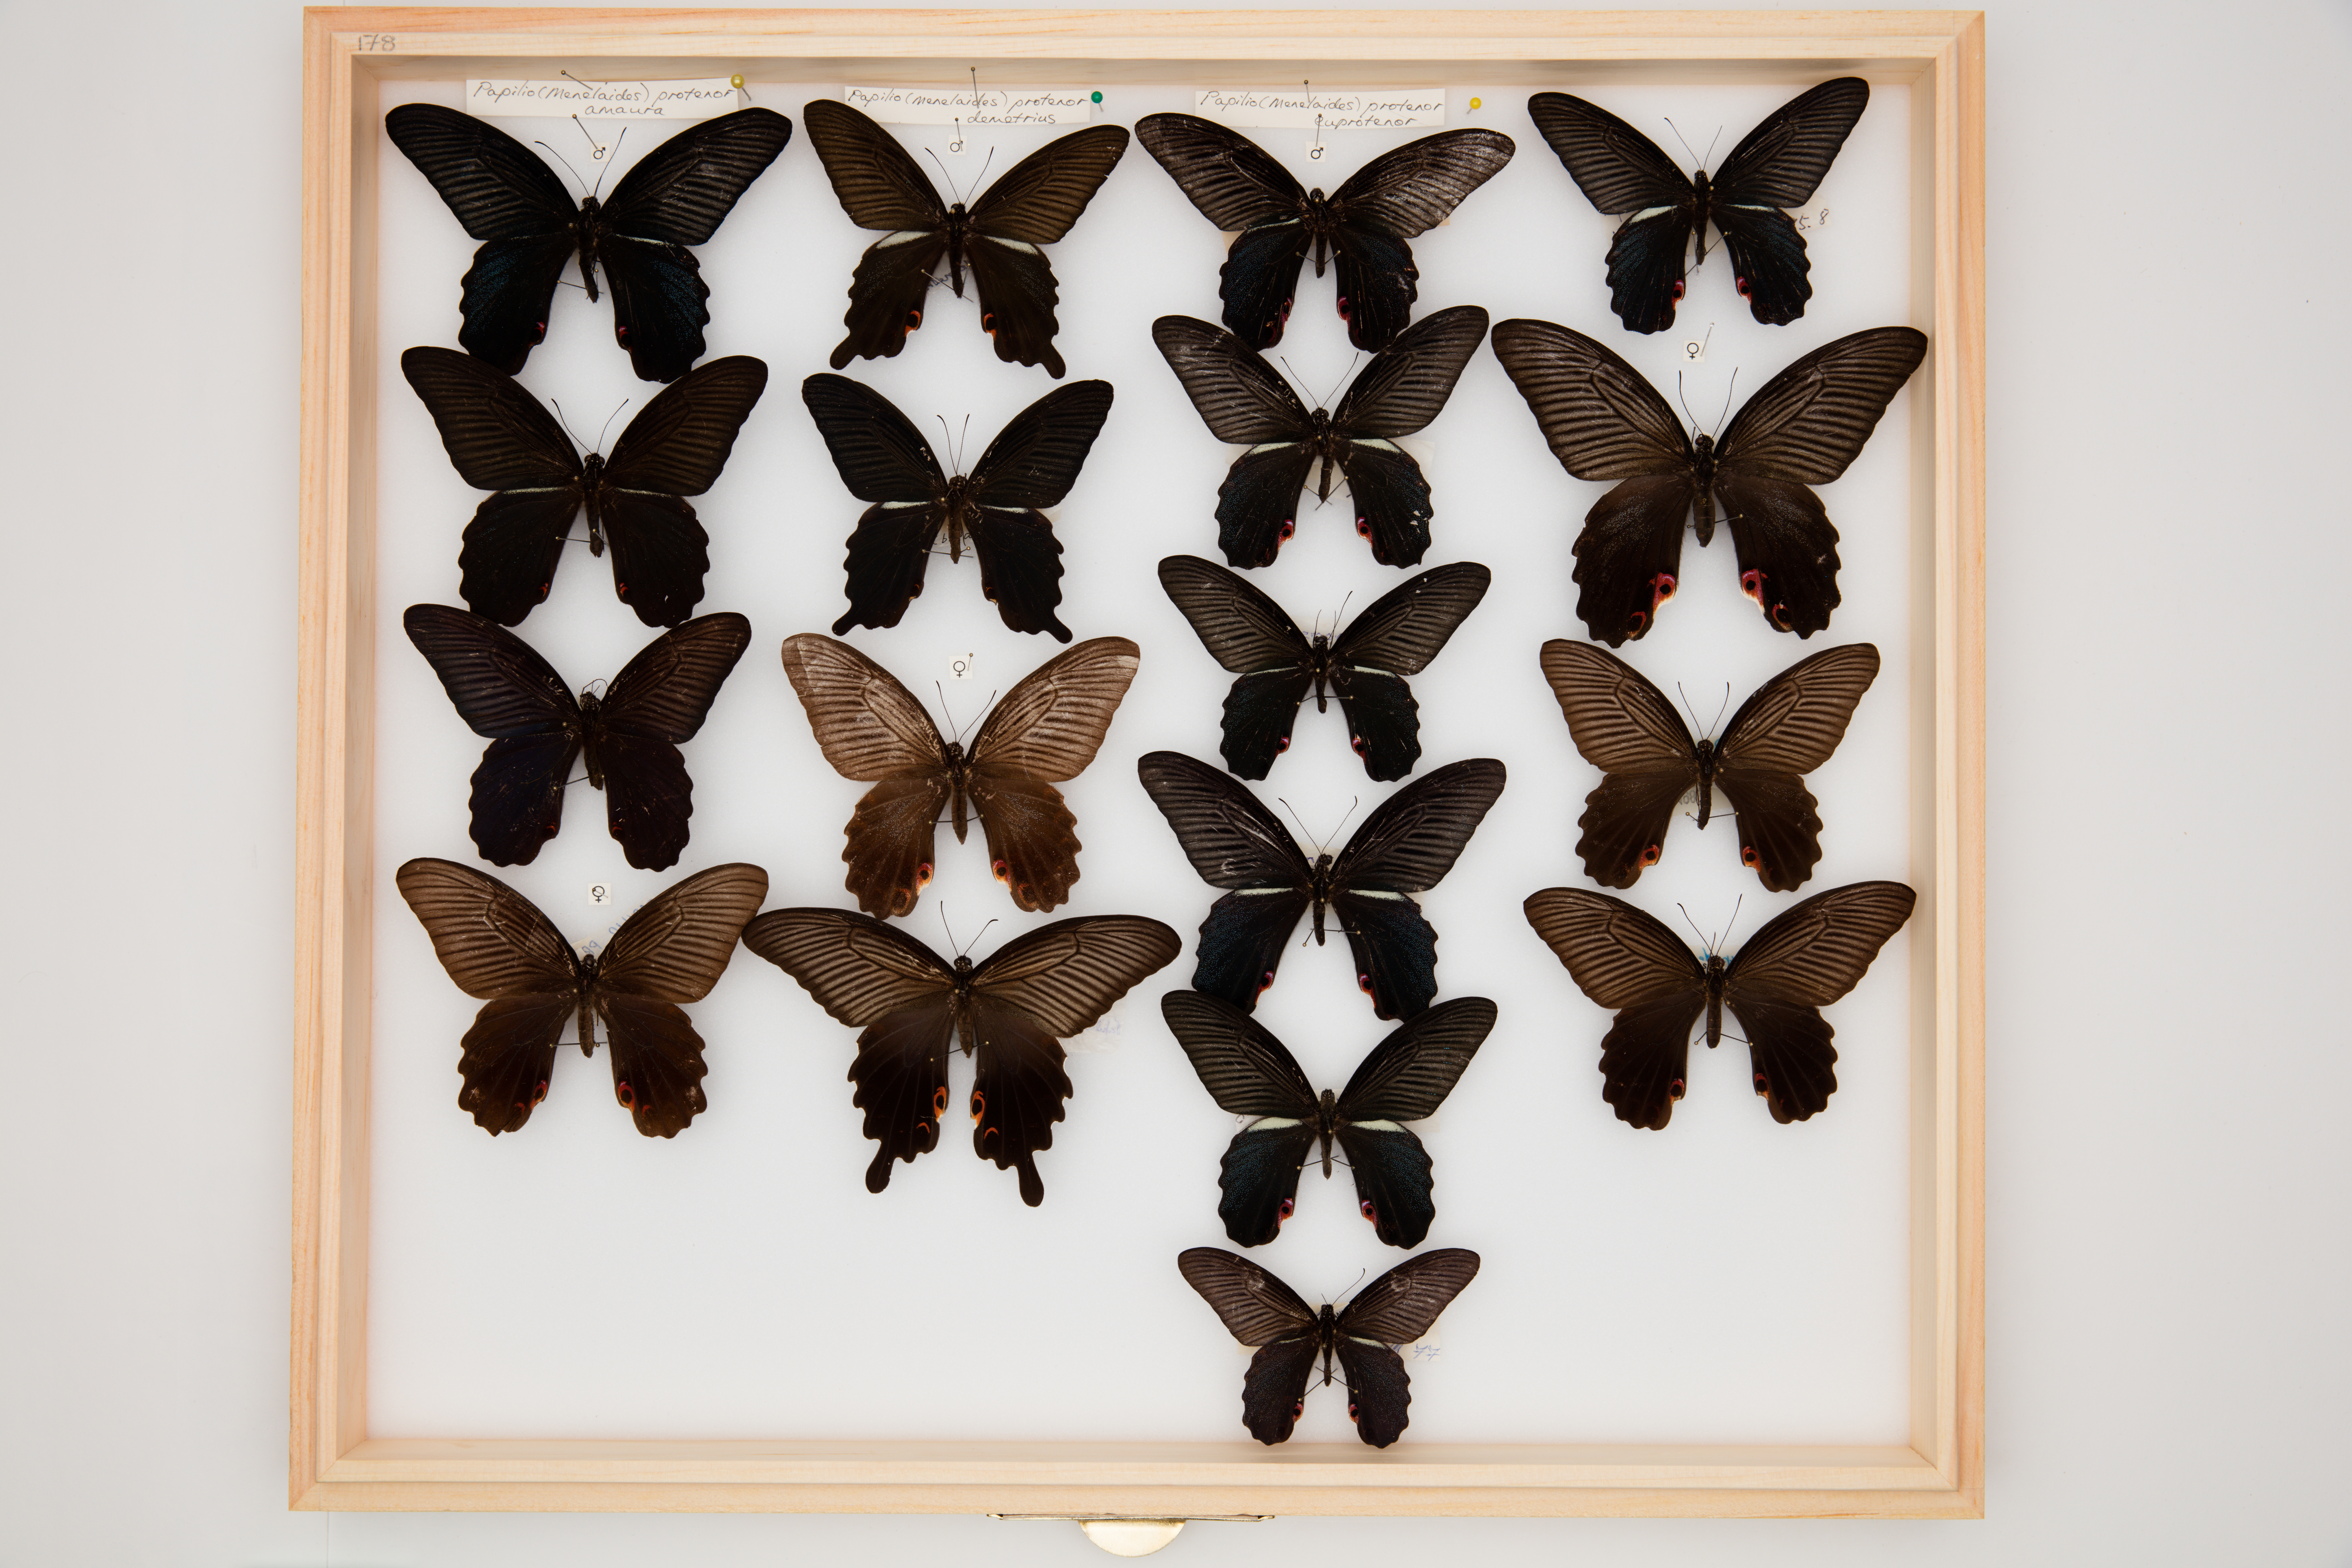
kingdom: Animalia
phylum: Arthropoda
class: Insecta
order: Lepidoptera
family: Papilionidae
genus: Papilio
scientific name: Papilio protenor
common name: Spangle
